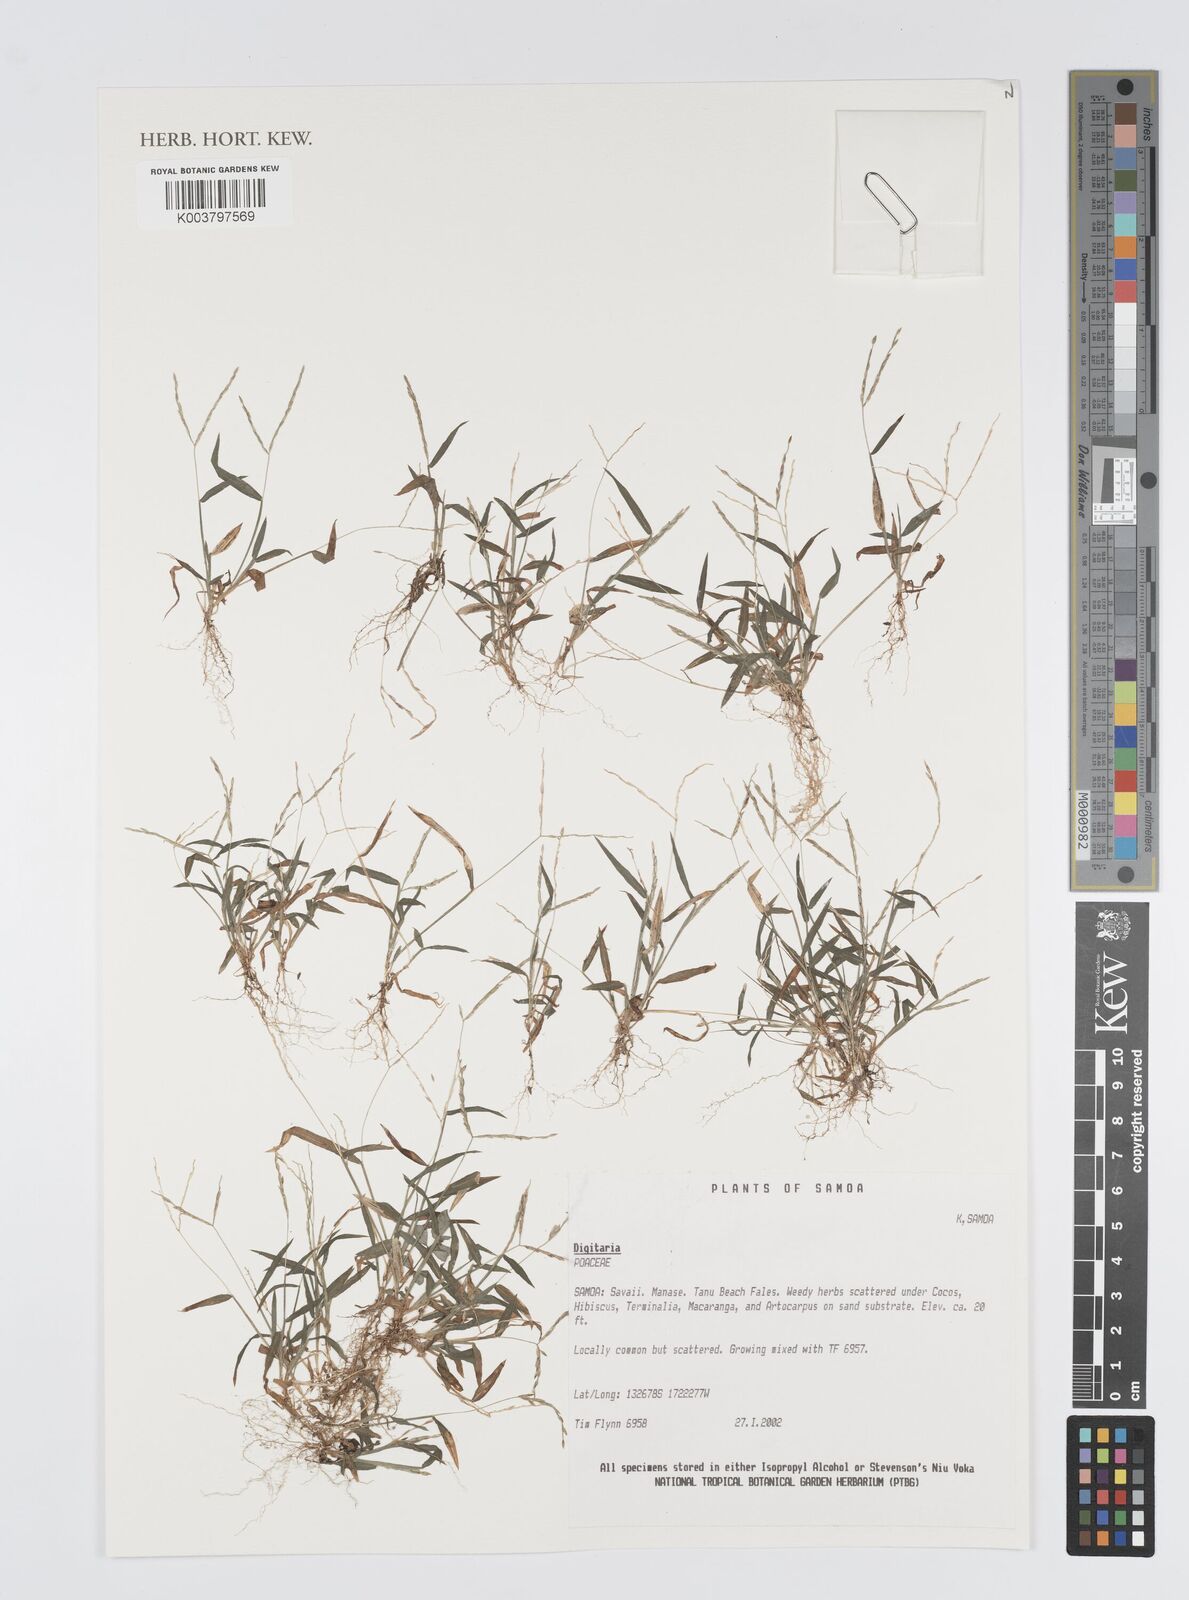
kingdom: Plantae
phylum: Tracheophyta
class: Liliopsida
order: Poales
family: Poaceae
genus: Digitaria
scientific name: Digitaria
